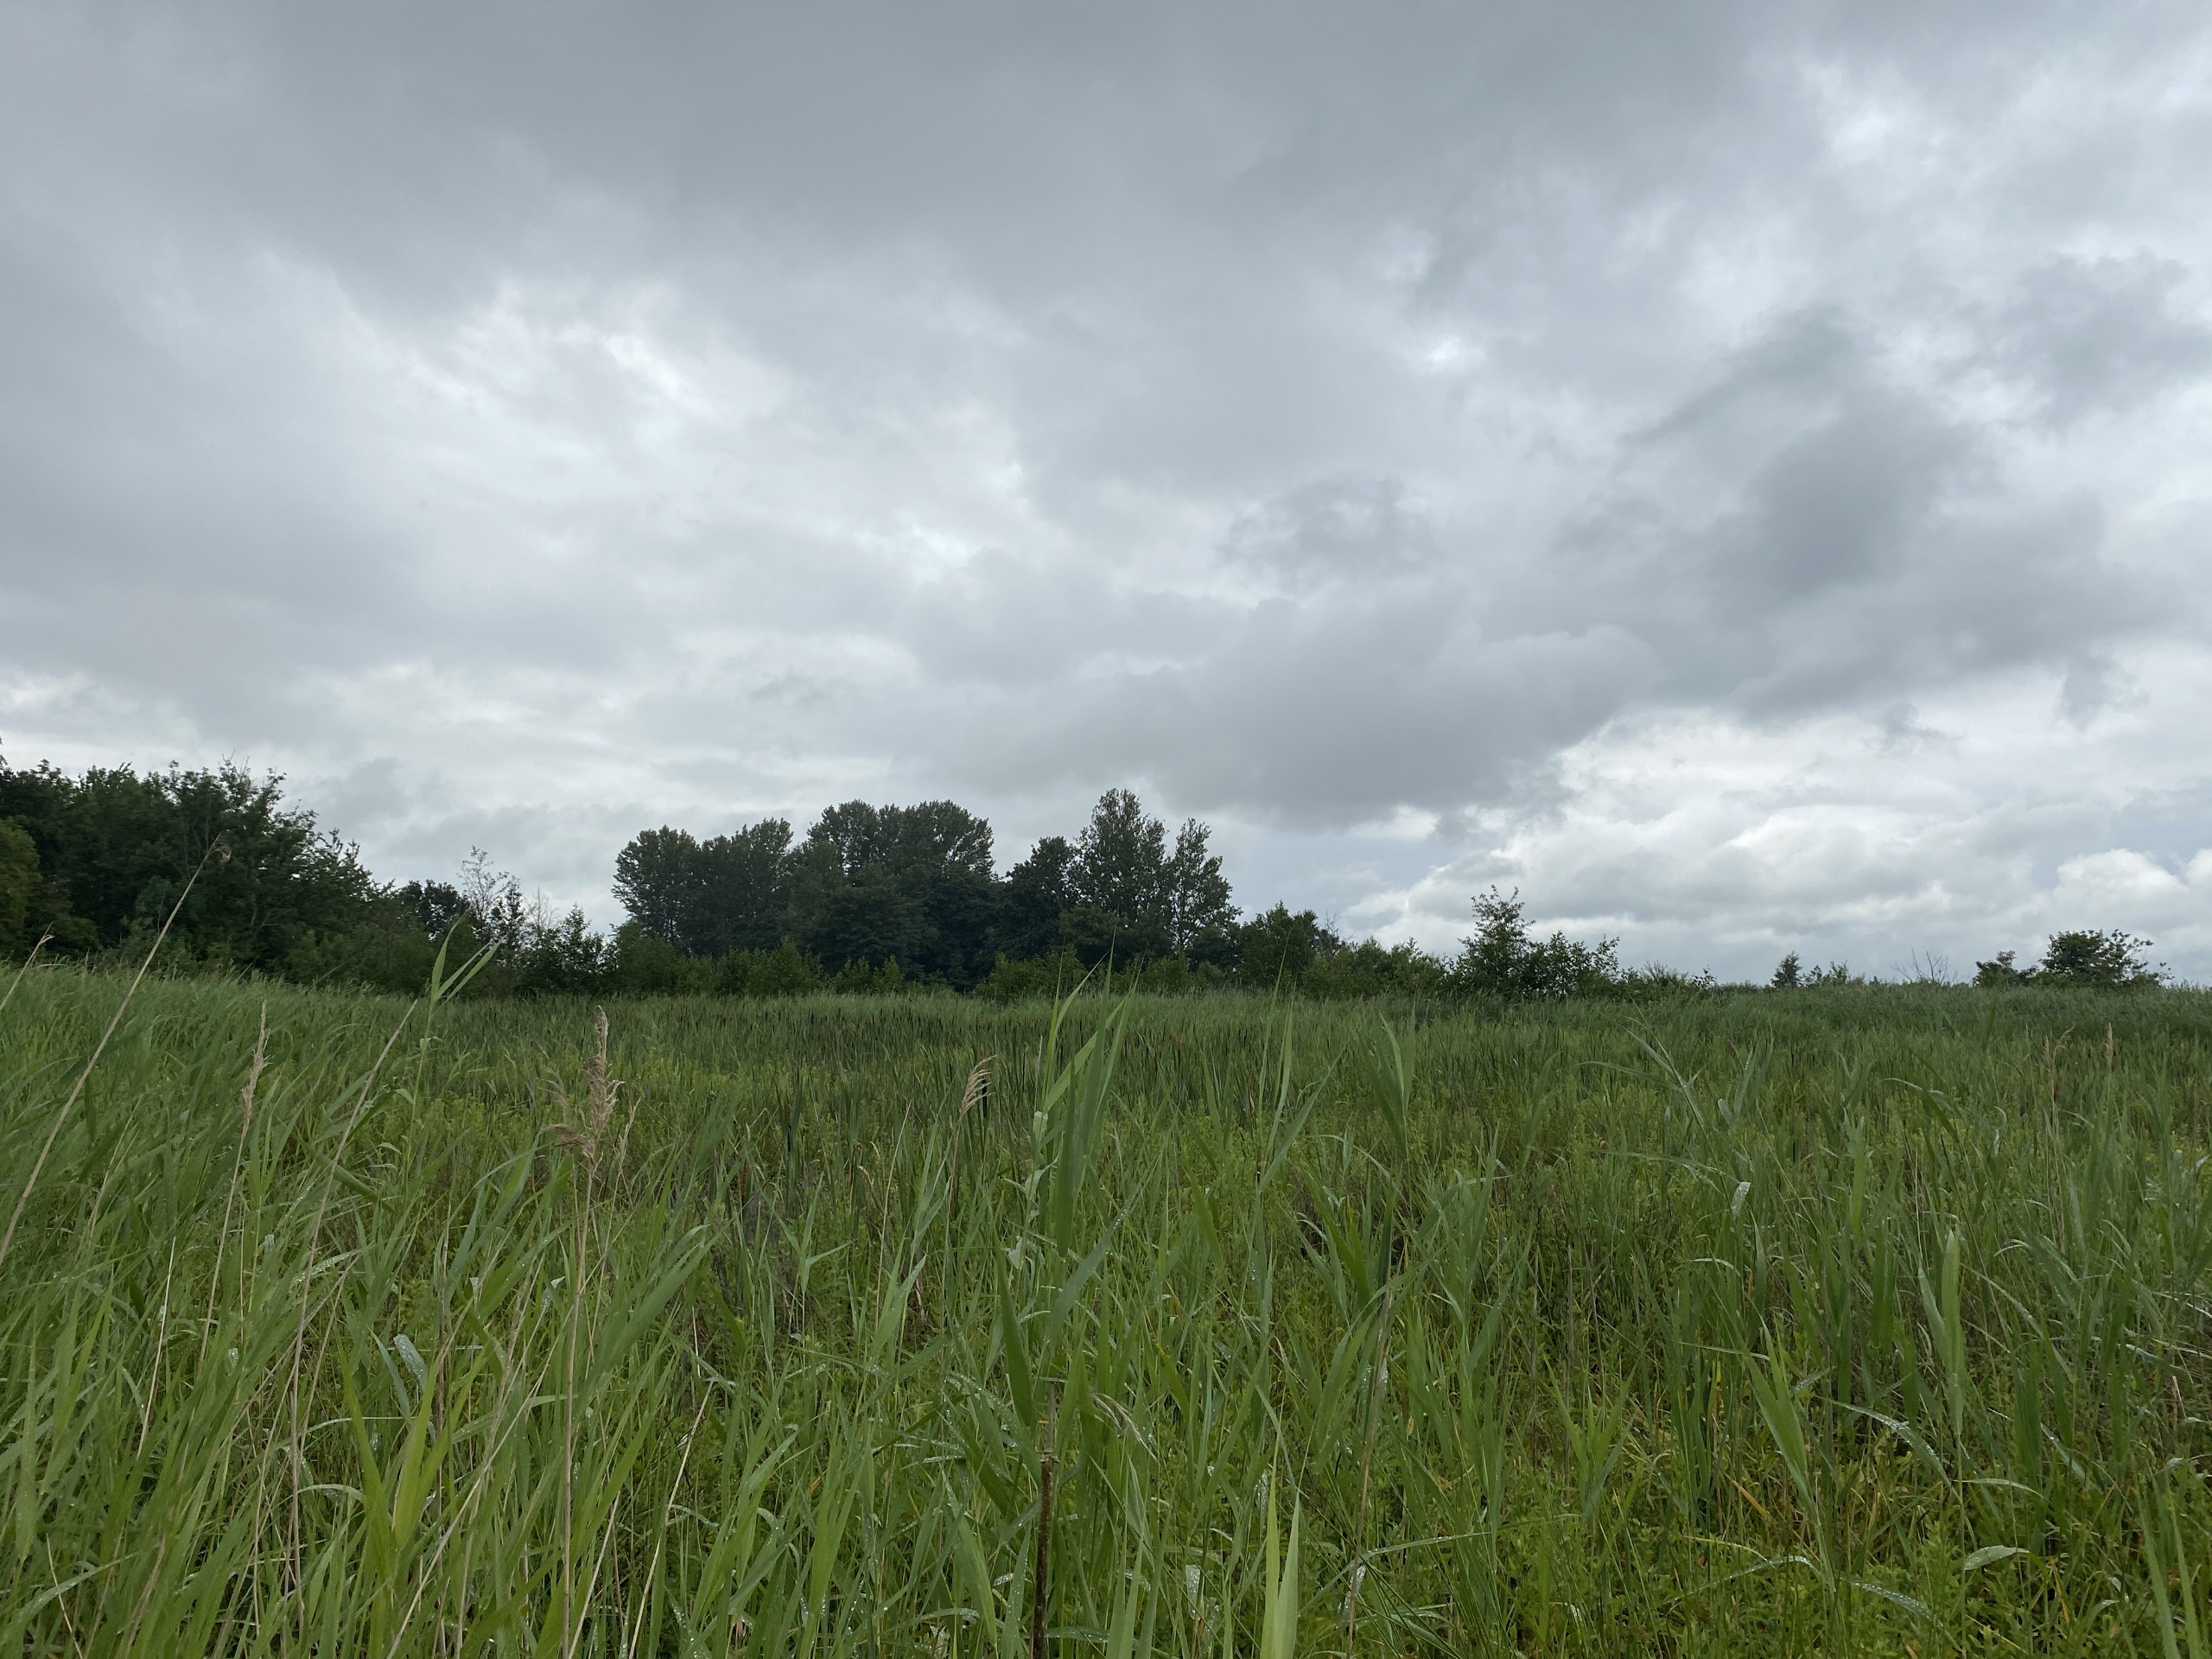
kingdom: Plantae
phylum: Tracheophyta
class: Liliopsida
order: Poales
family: Poaceae
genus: Phragmites
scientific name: Phragmites australis
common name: Tagrør
